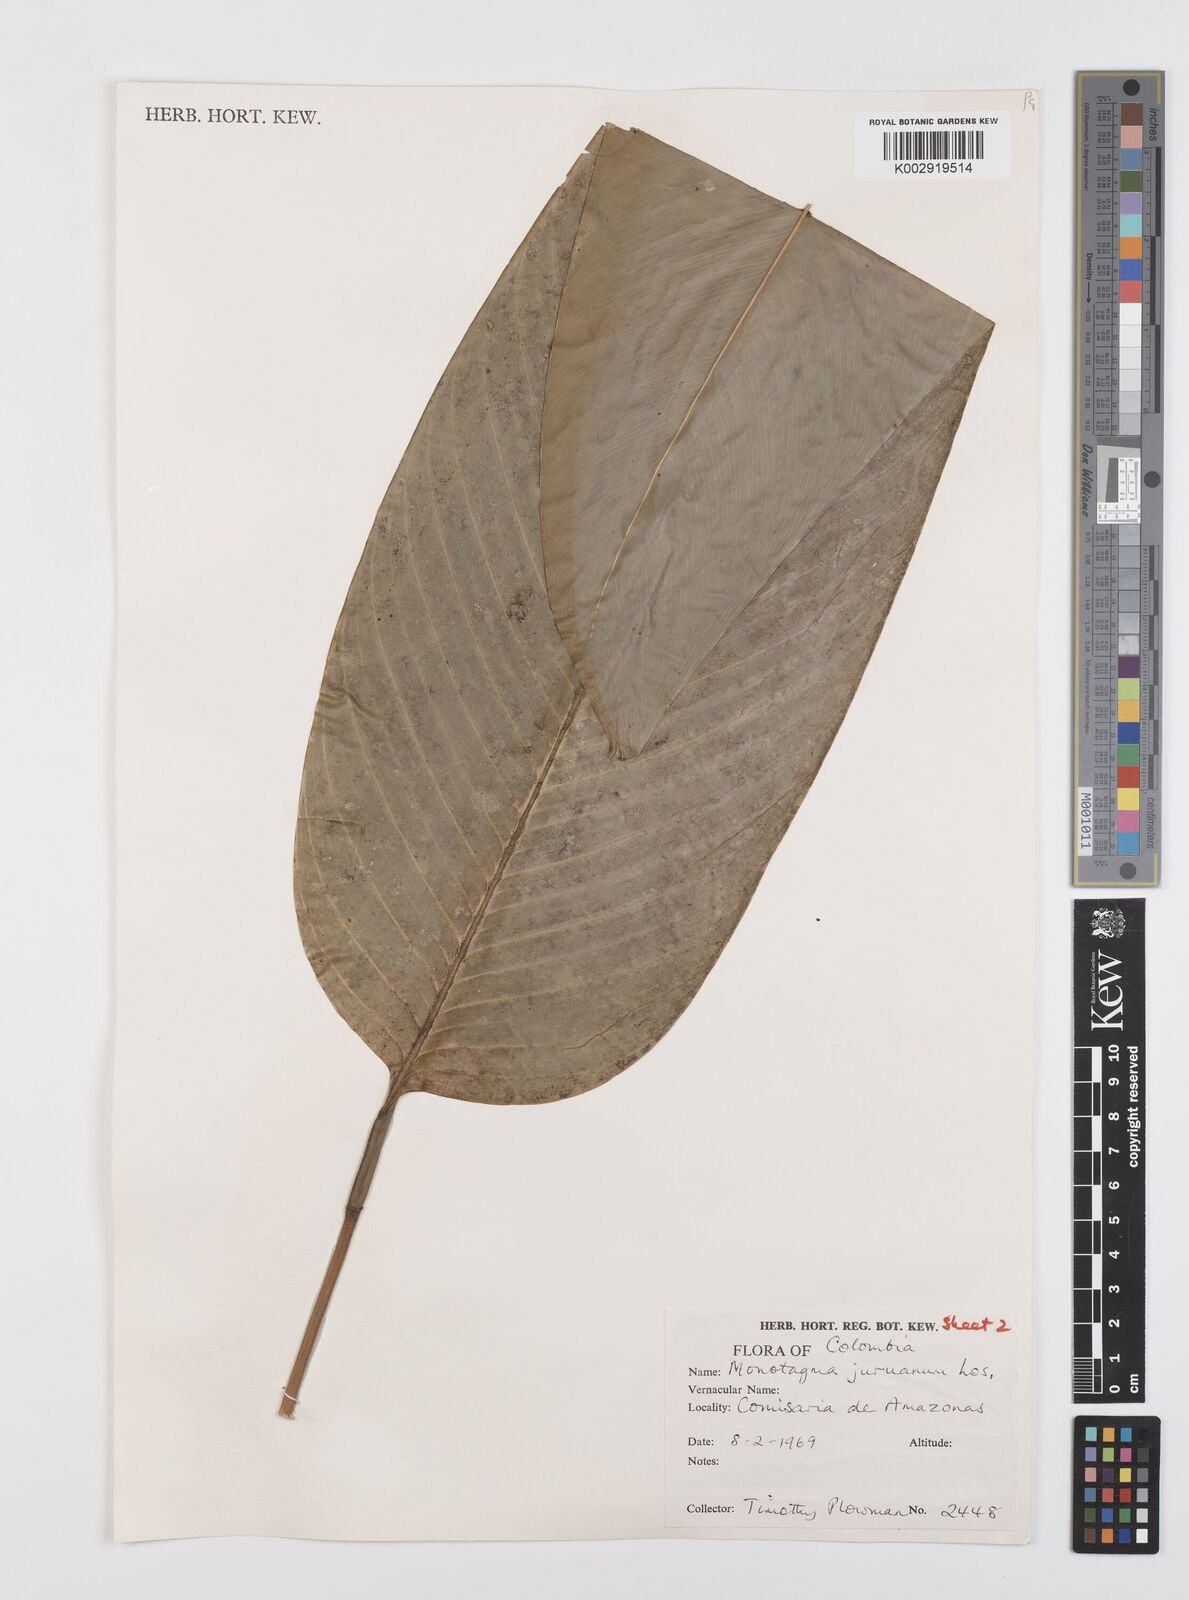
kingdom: Plantae
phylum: Tracheophyta
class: Liliopsida
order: Zingiberales
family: Marantaceae
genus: Monotagma
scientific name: Monotagma juruanum
